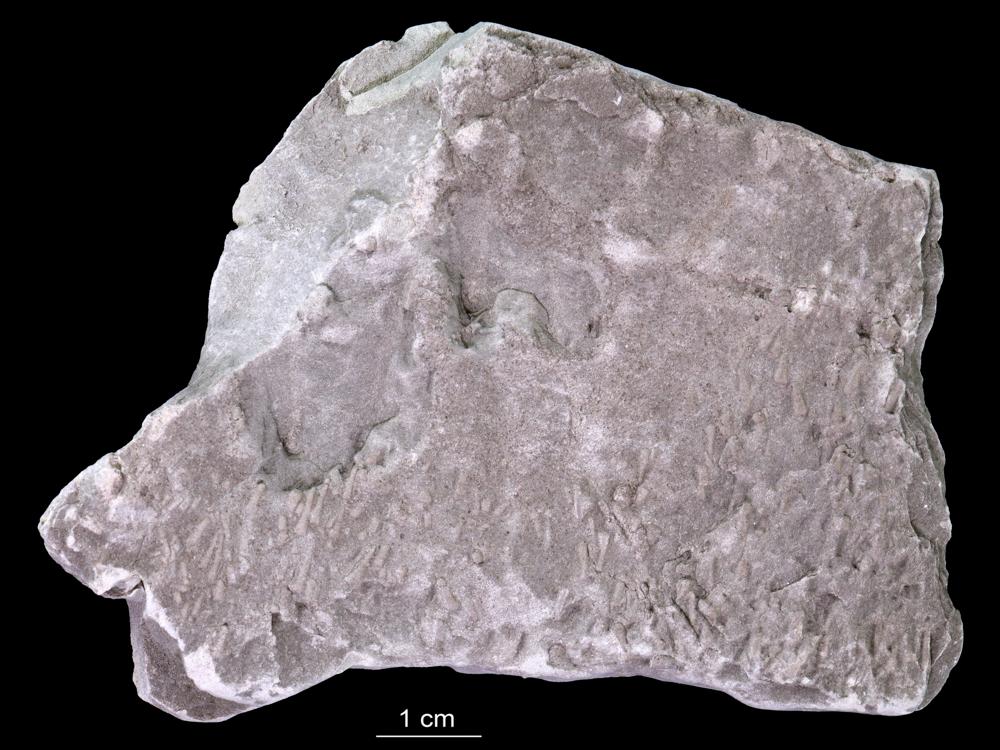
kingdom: Animalia
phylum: Annelida
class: Polychaeta
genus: Volborthella
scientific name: Volborthella tenuis
